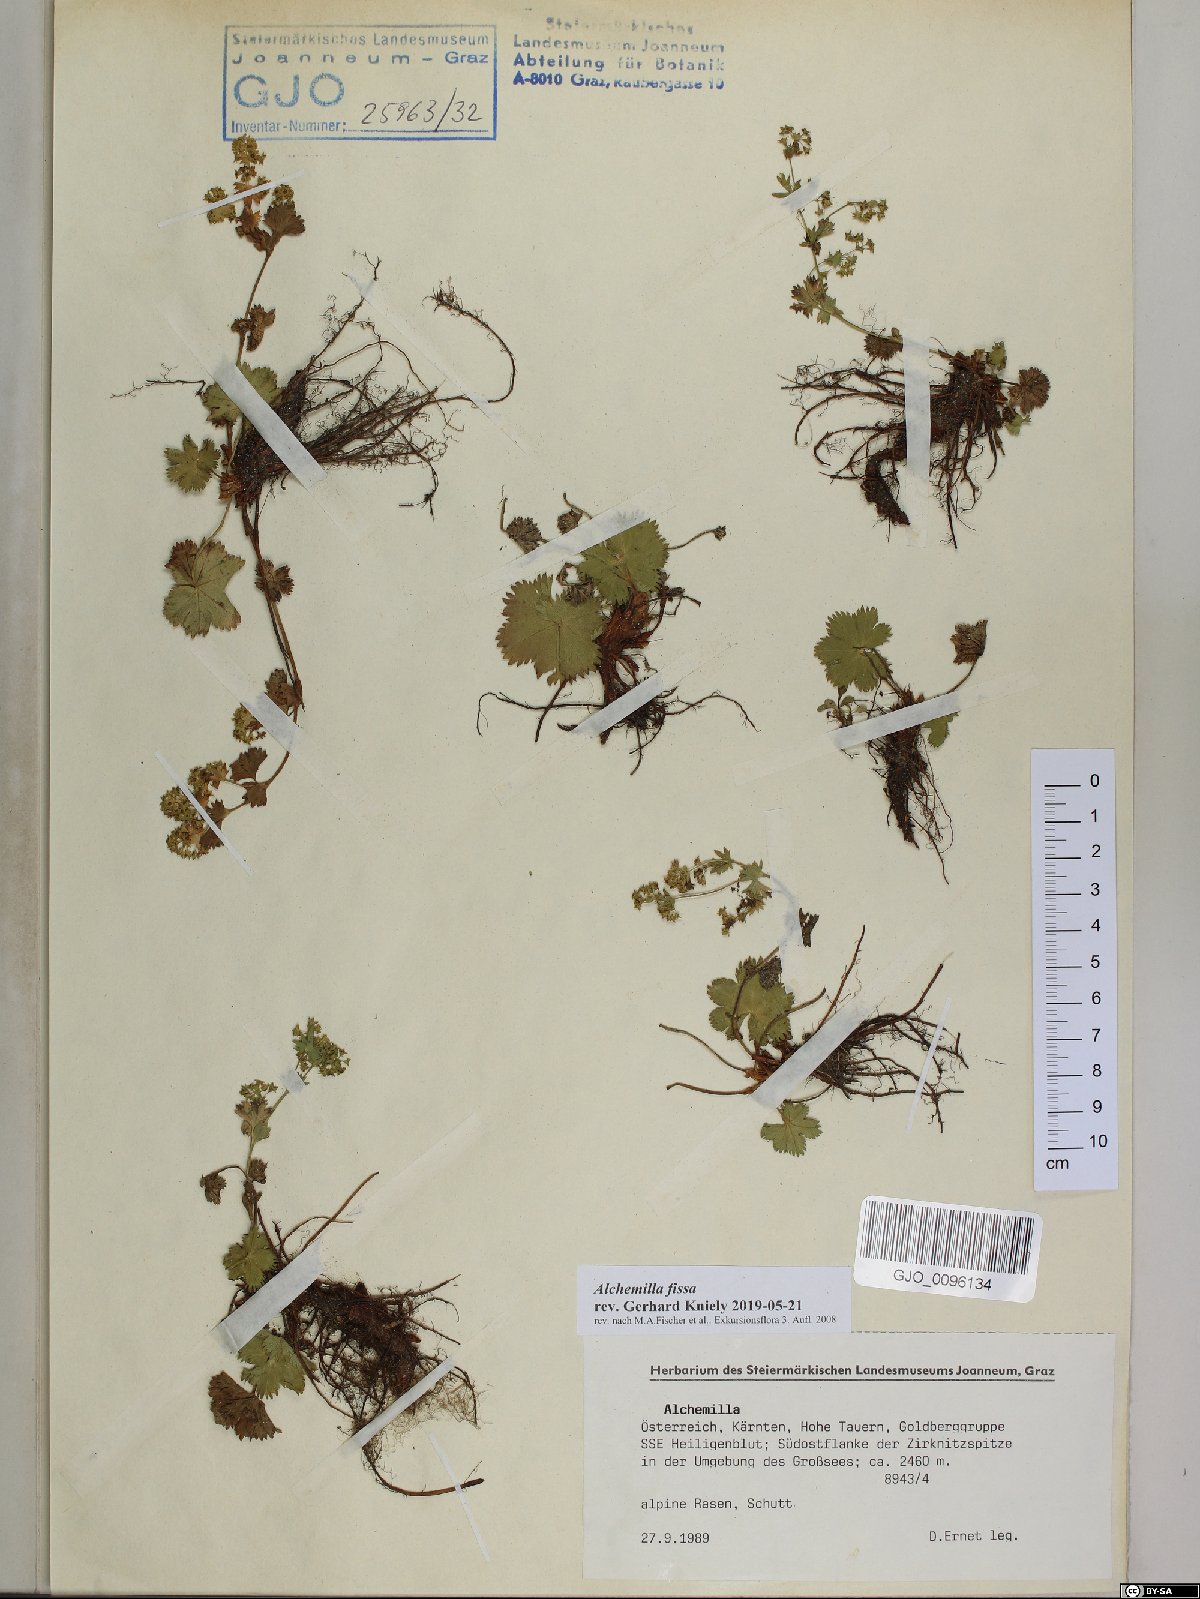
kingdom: Plantae
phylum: Tracheophyta
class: Magnoliopsida
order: Rosales
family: Rosaceae
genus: Alchemilla
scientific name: Alchemilla fissa
